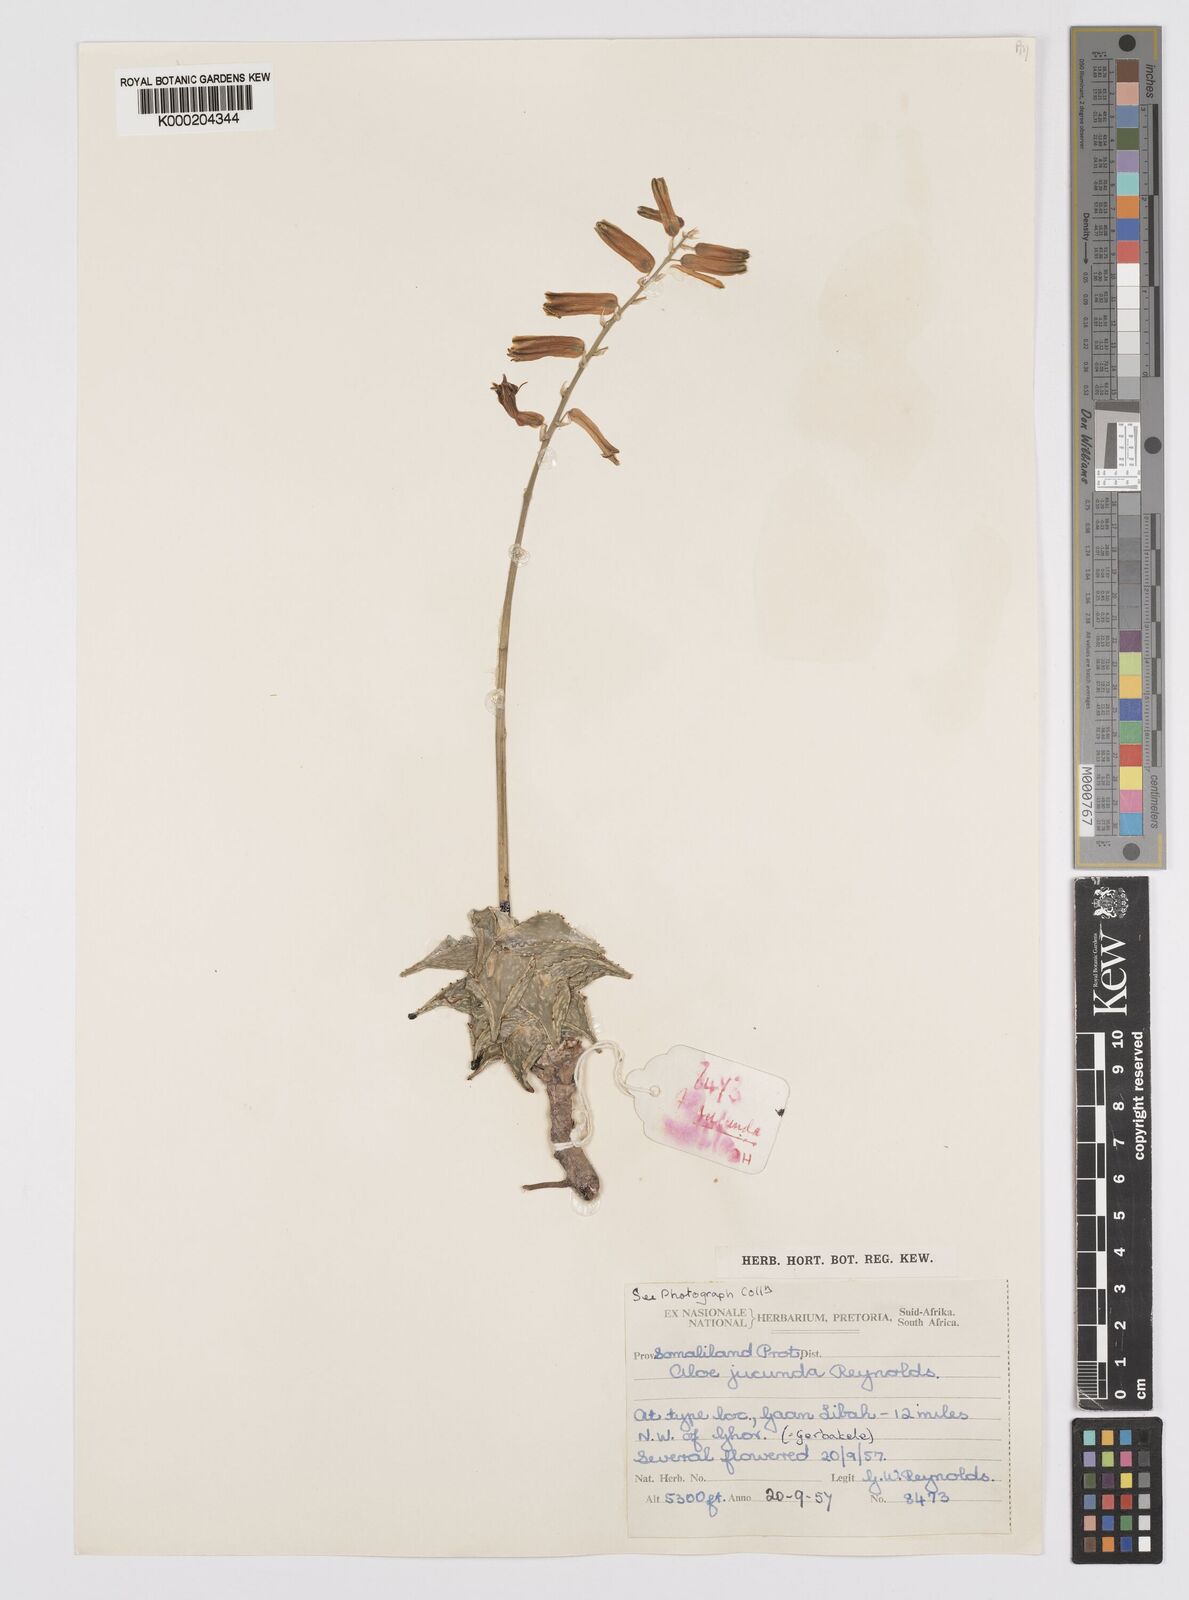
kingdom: Plantae
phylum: Tracheophyta
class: Liliopsida
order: Asparagales
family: Asphodelaceae
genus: Aloe
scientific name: Aloe jucunda
